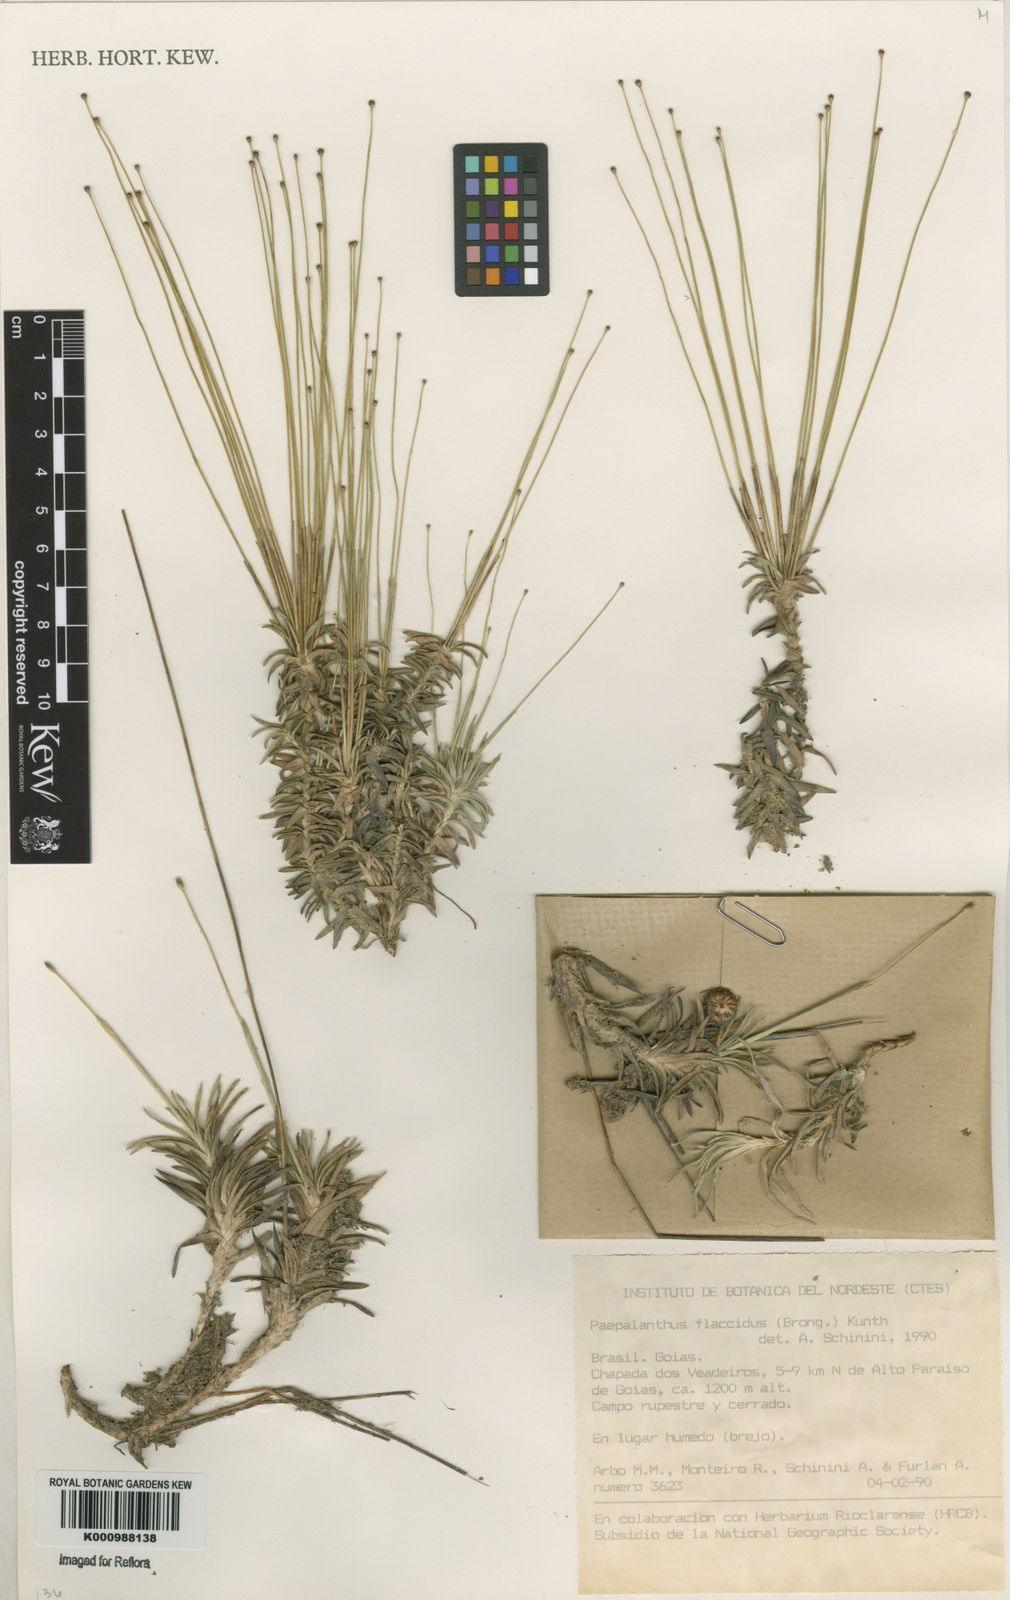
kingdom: Plantae
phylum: Tracheophyta
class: Liliopsida
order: Poales
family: Eriocaulaceae
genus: Paepalanthus
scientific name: Paepalanthus flaccidus
